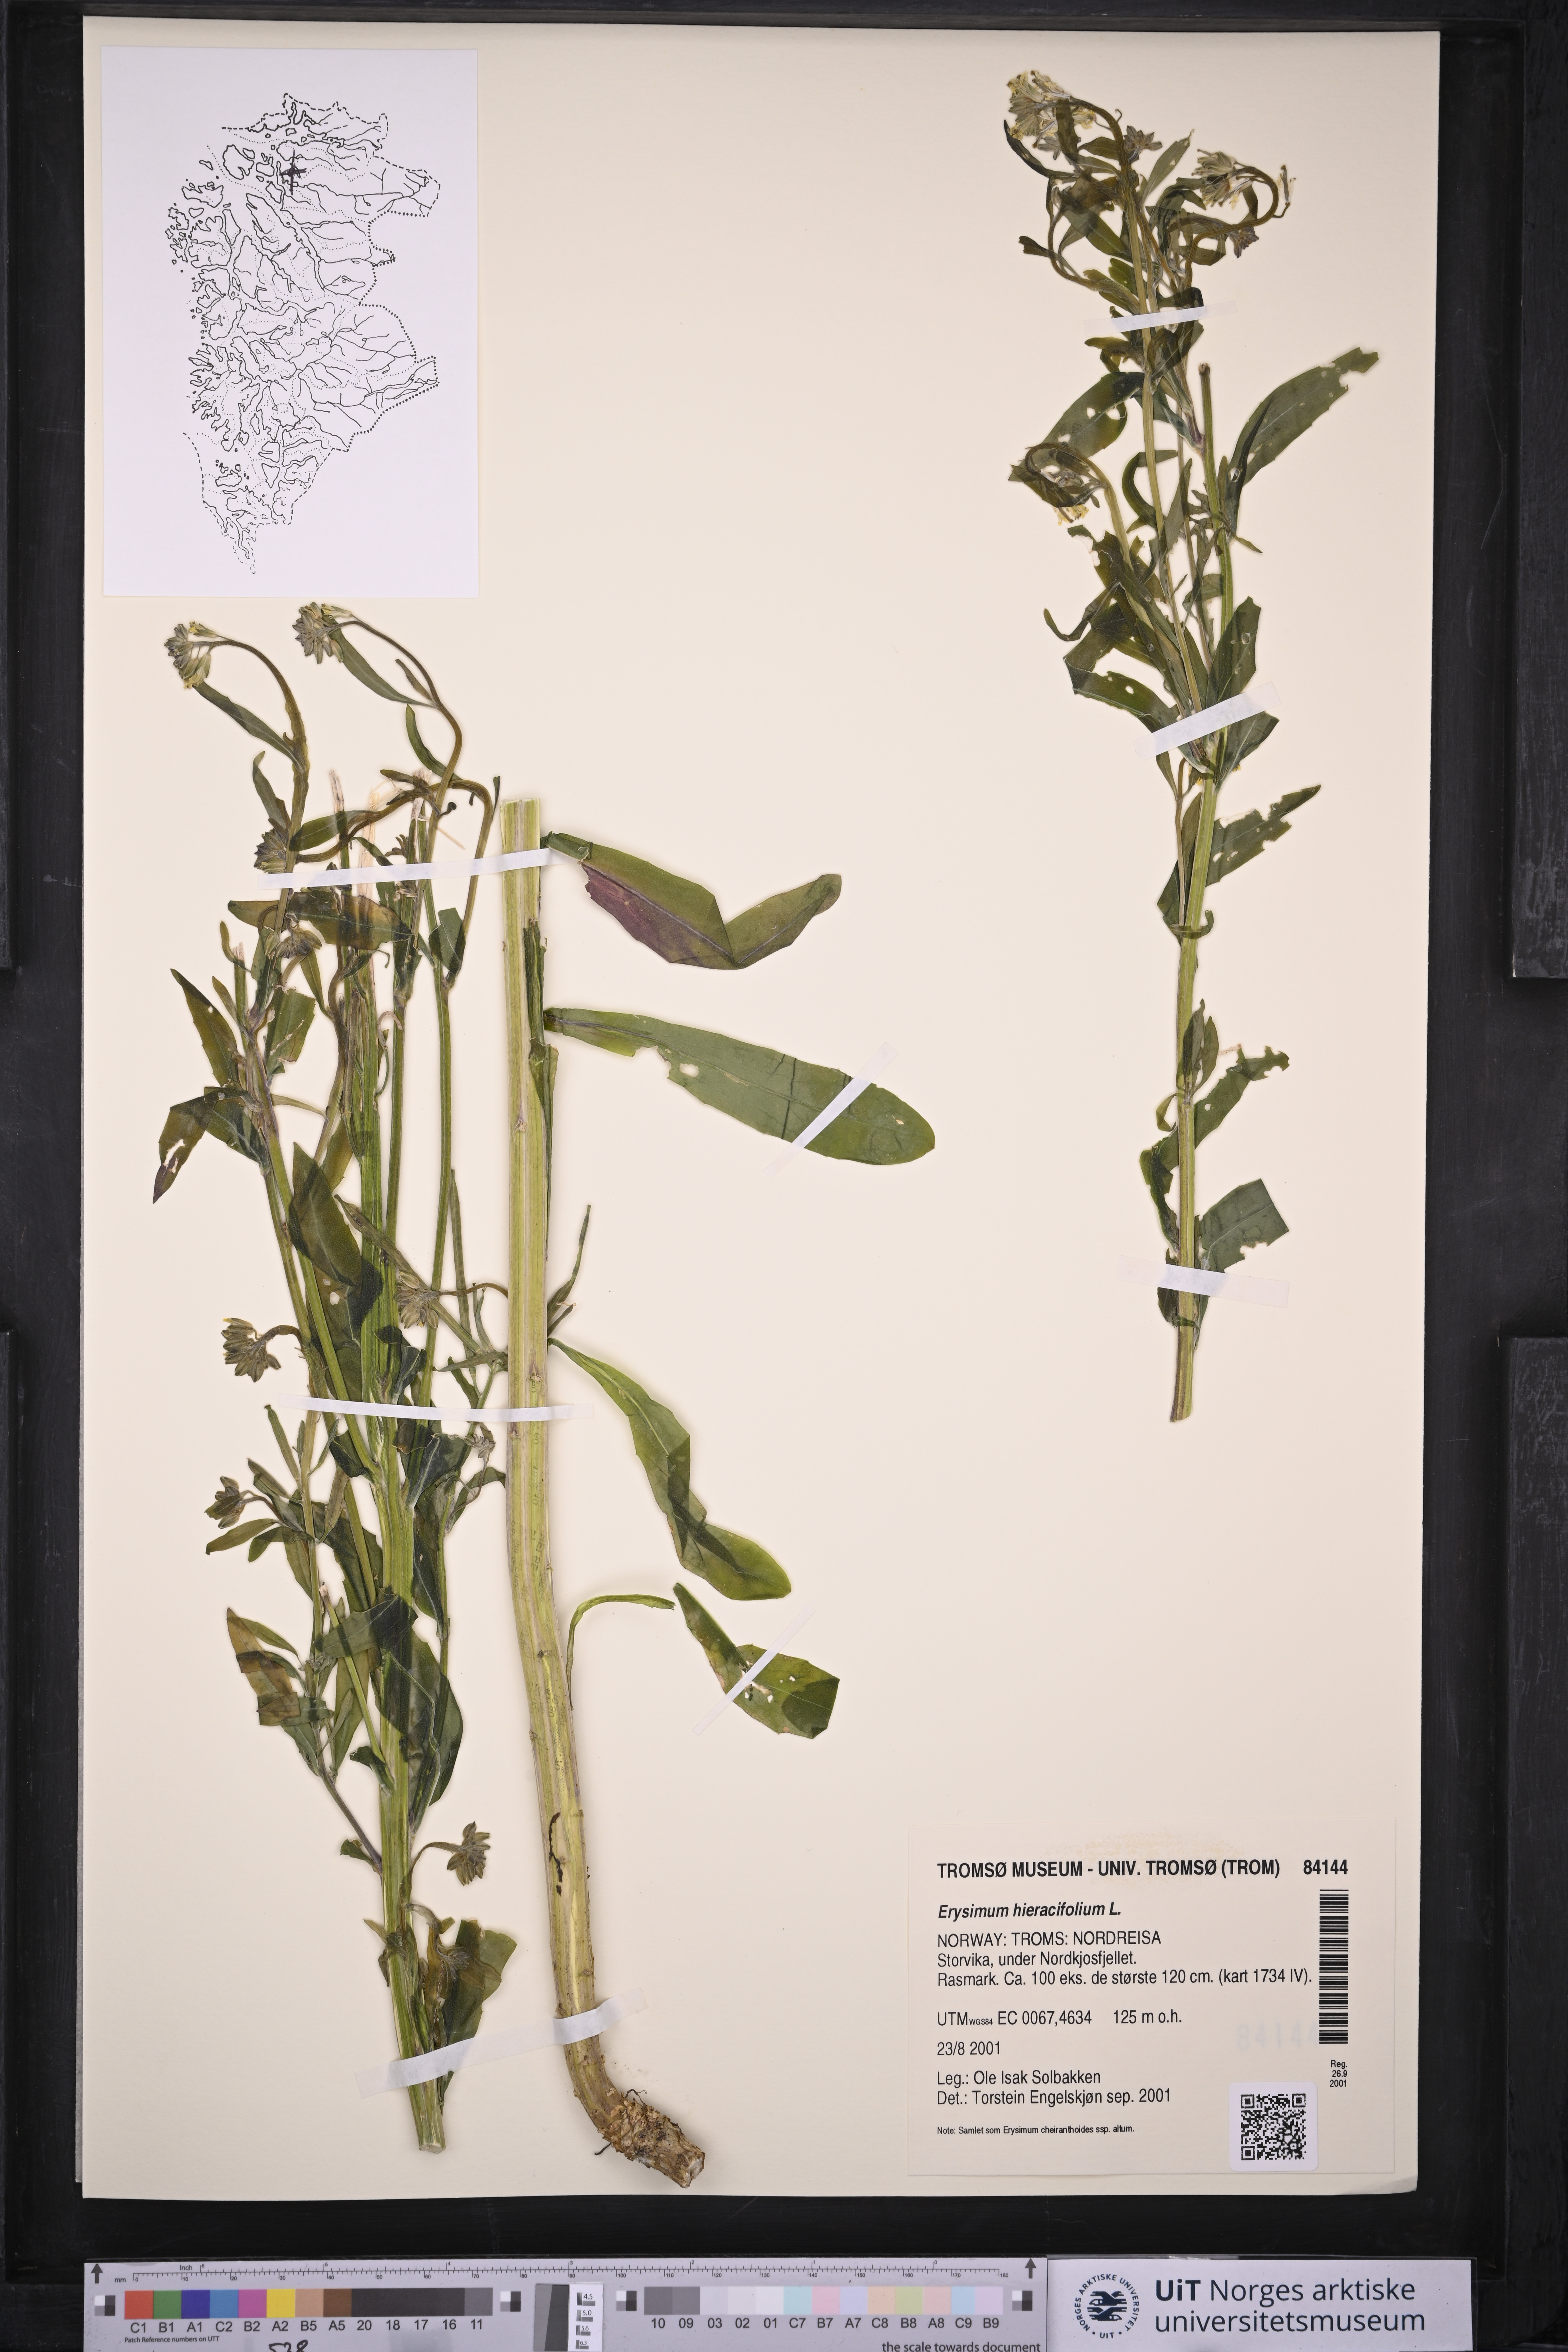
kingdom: Plantae
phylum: Tracheophyta
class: Magnoliopsida
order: Brassicales
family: Brassicaceae
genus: Erysimum
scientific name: Erysimum hieraciifolium
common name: European wallflower
